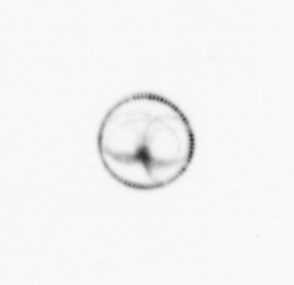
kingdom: Chromista
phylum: Myzozoa
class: Dinophyceae
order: Noctilucales
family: Noctilucaceae
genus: Noctiluca
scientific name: Noctiluca scintillans
